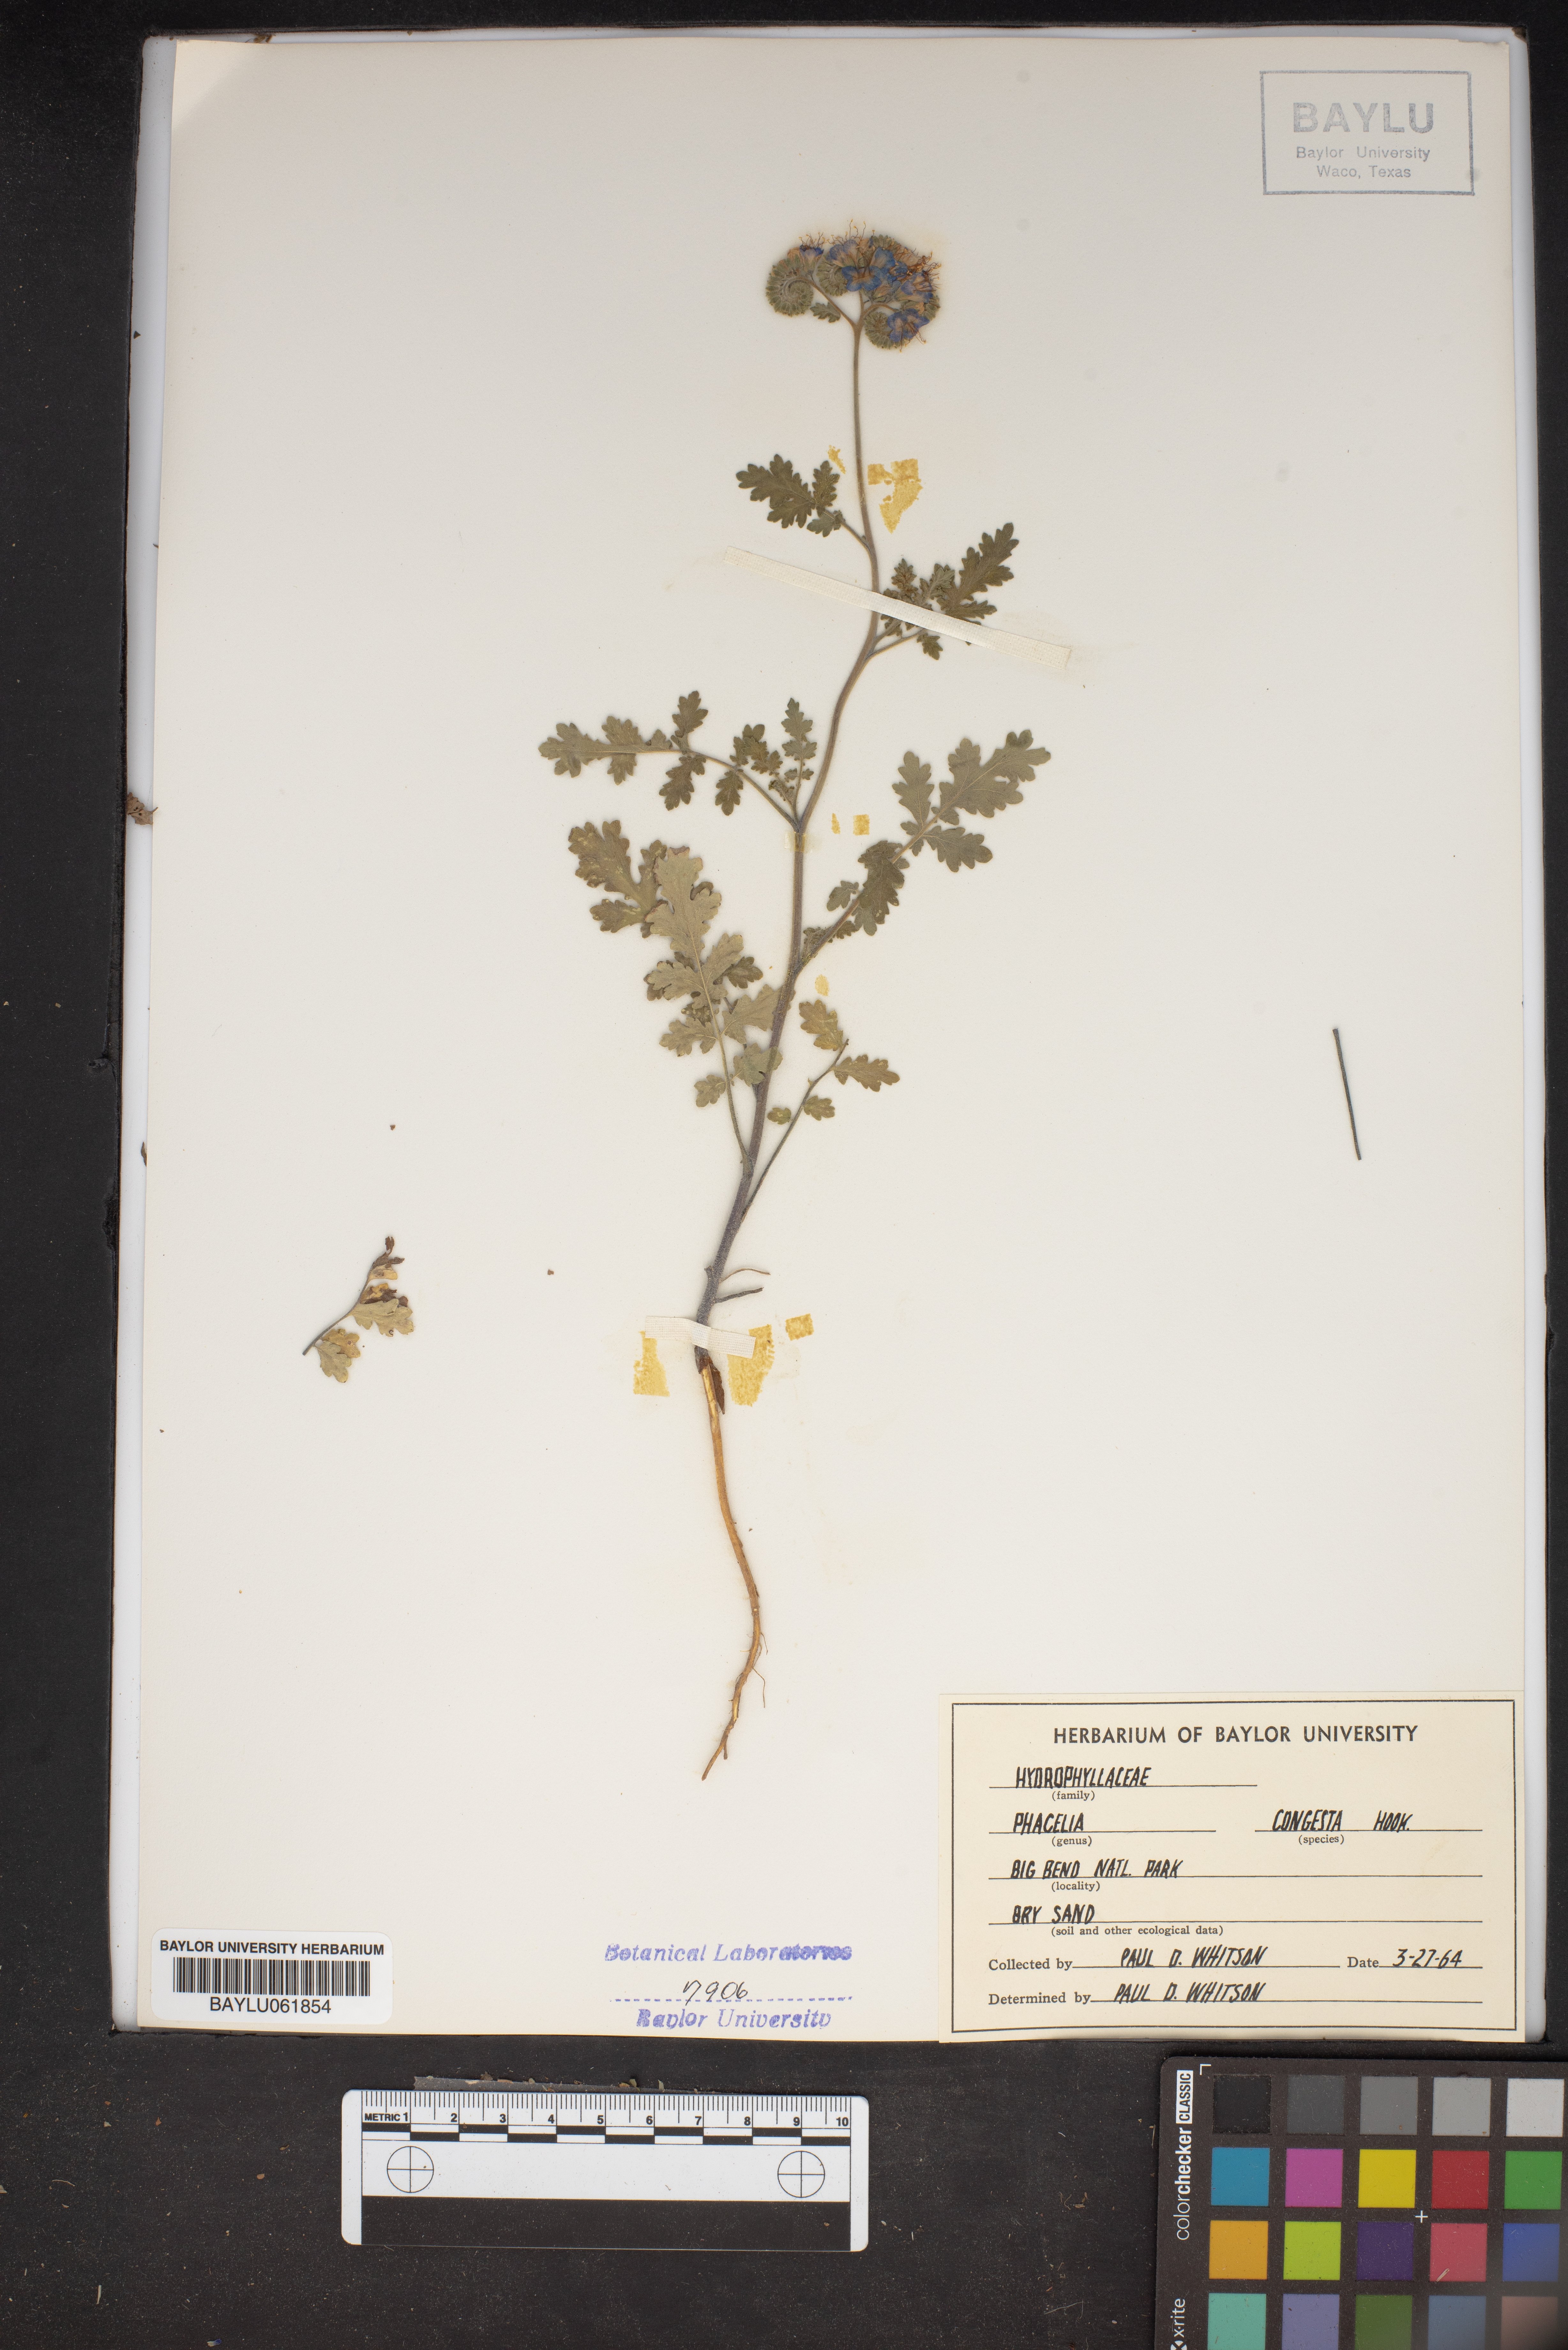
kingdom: Plantae
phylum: Tracheophyta
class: Magnoliopsida
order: Boraginales
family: Hydrophyllaceae
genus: Phacelia
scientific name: Phacelia congesta
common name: Blue curls
